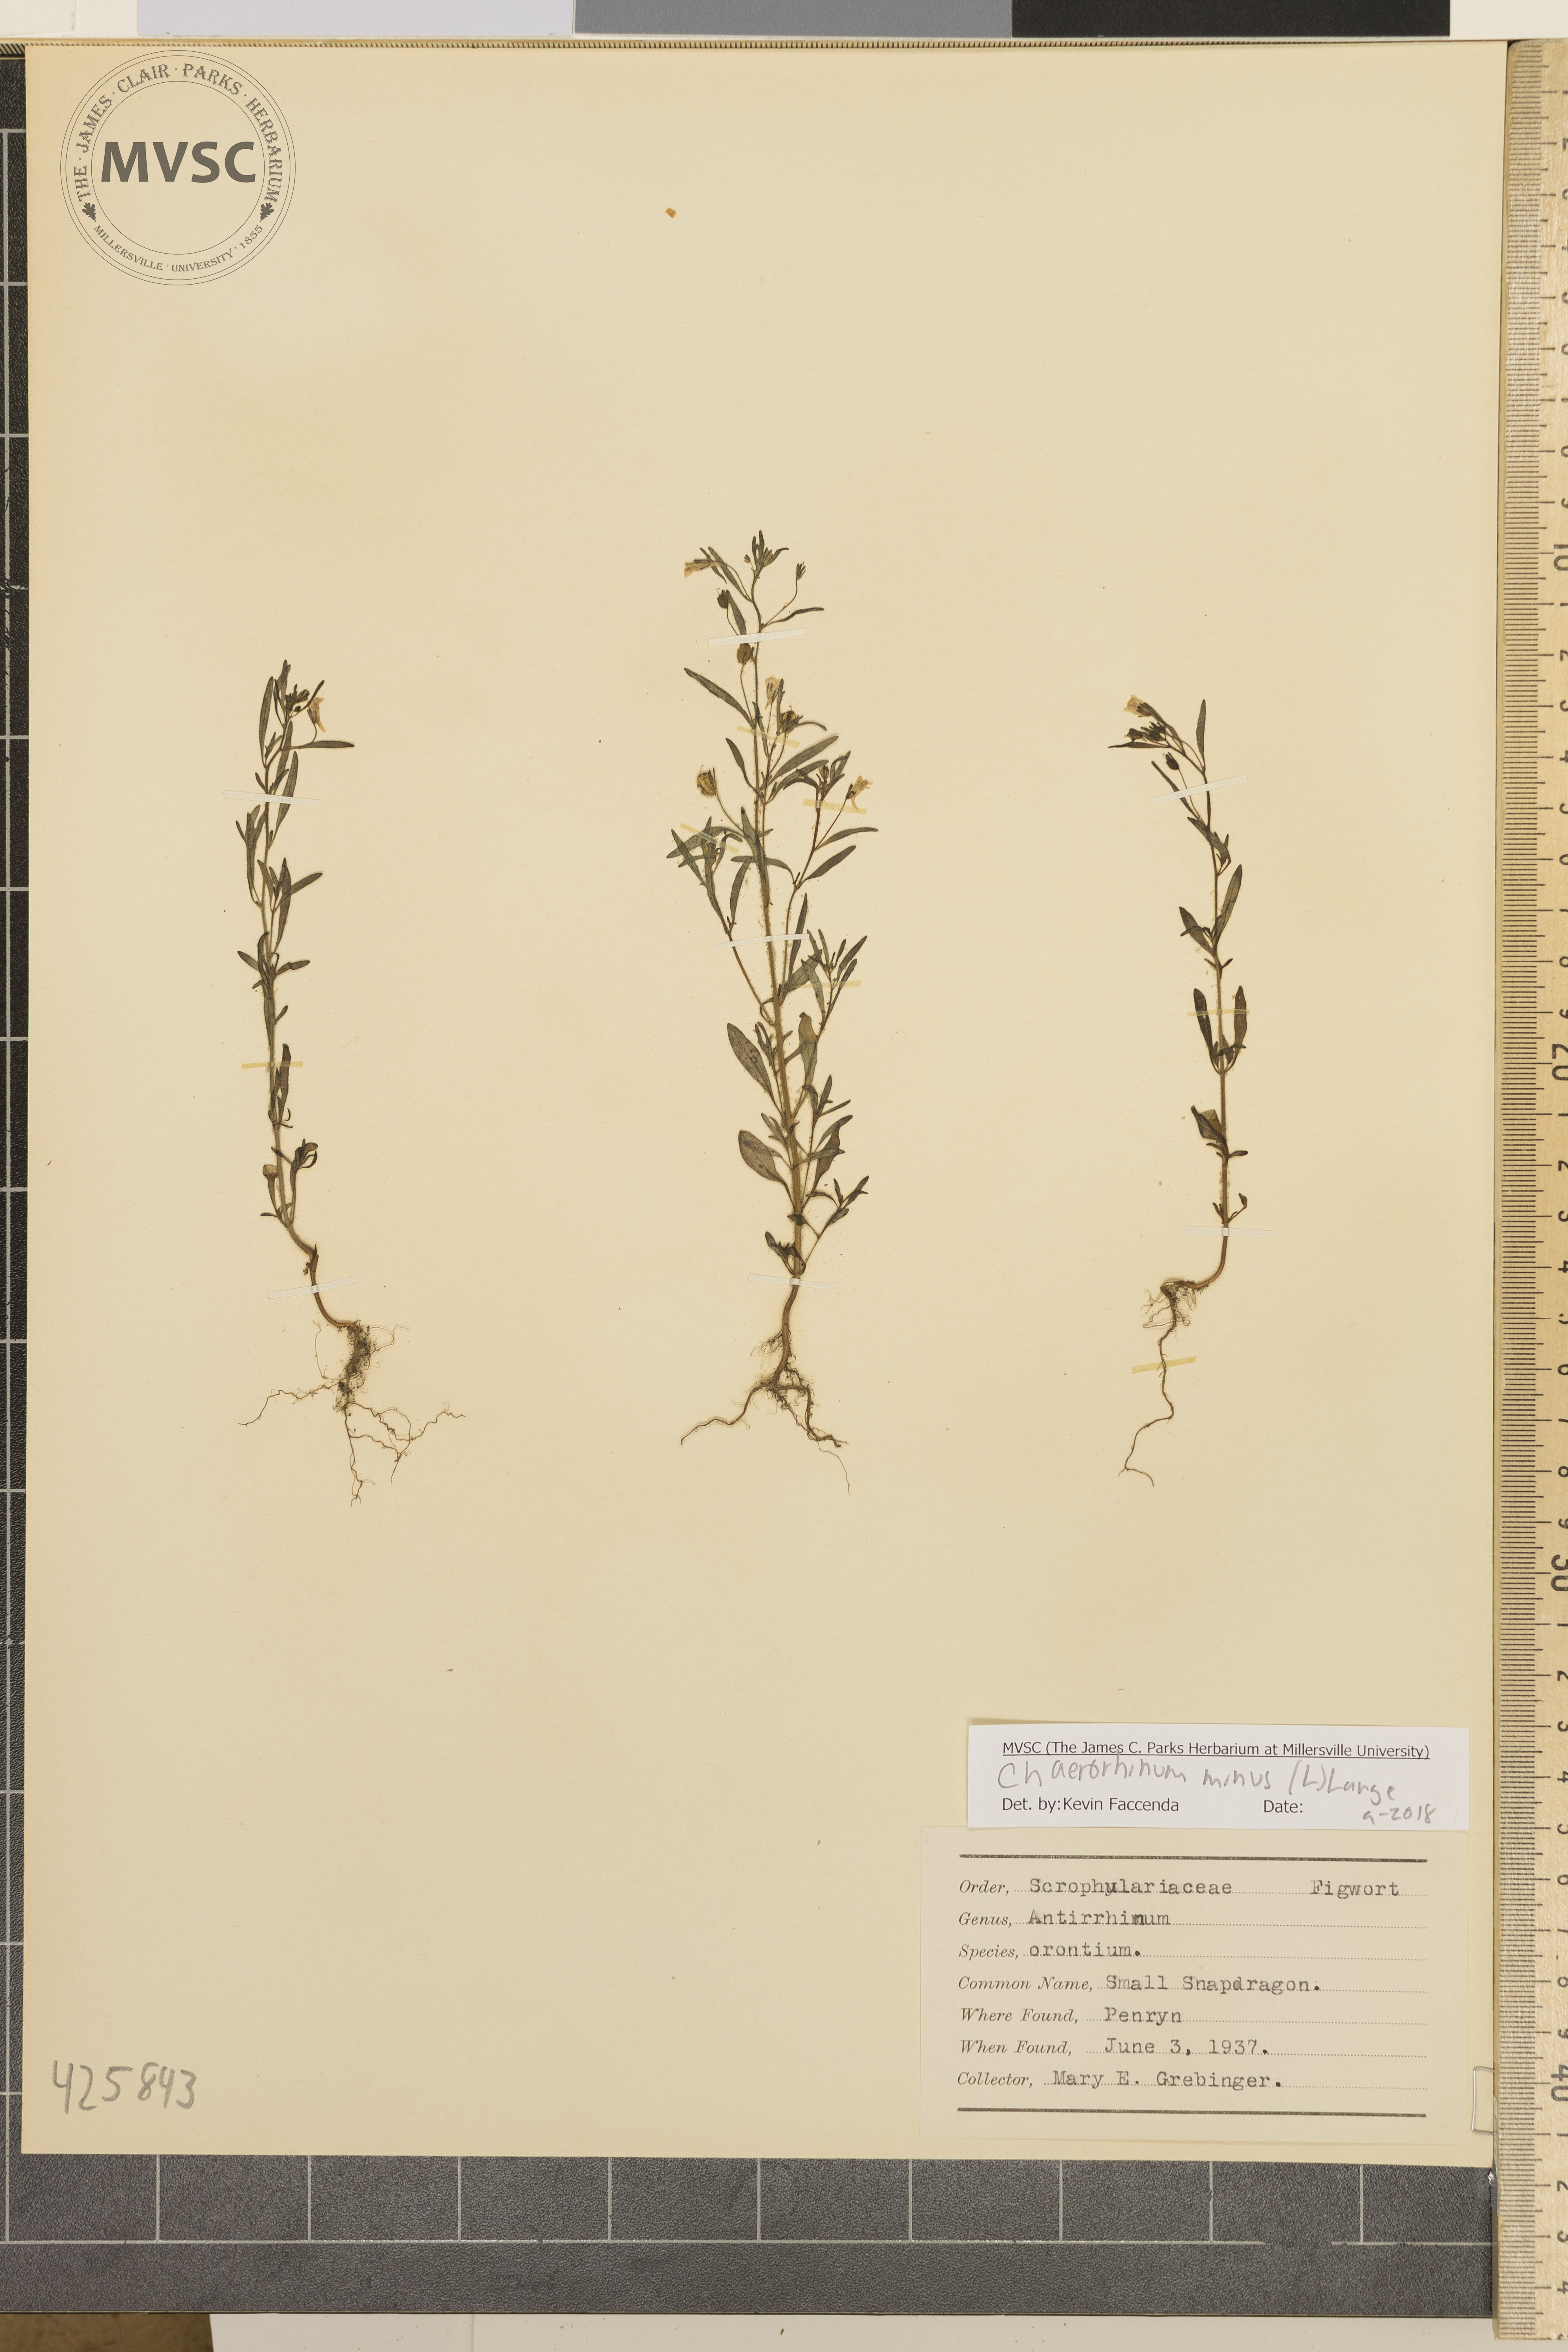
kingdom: Plantae
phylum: Tracheophyta
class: Magnoliopsida
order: Lamiales
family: Plantaginaceae
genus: Chaenorhinum
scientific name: Chaenorhinum minus
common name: Small snapdragon
